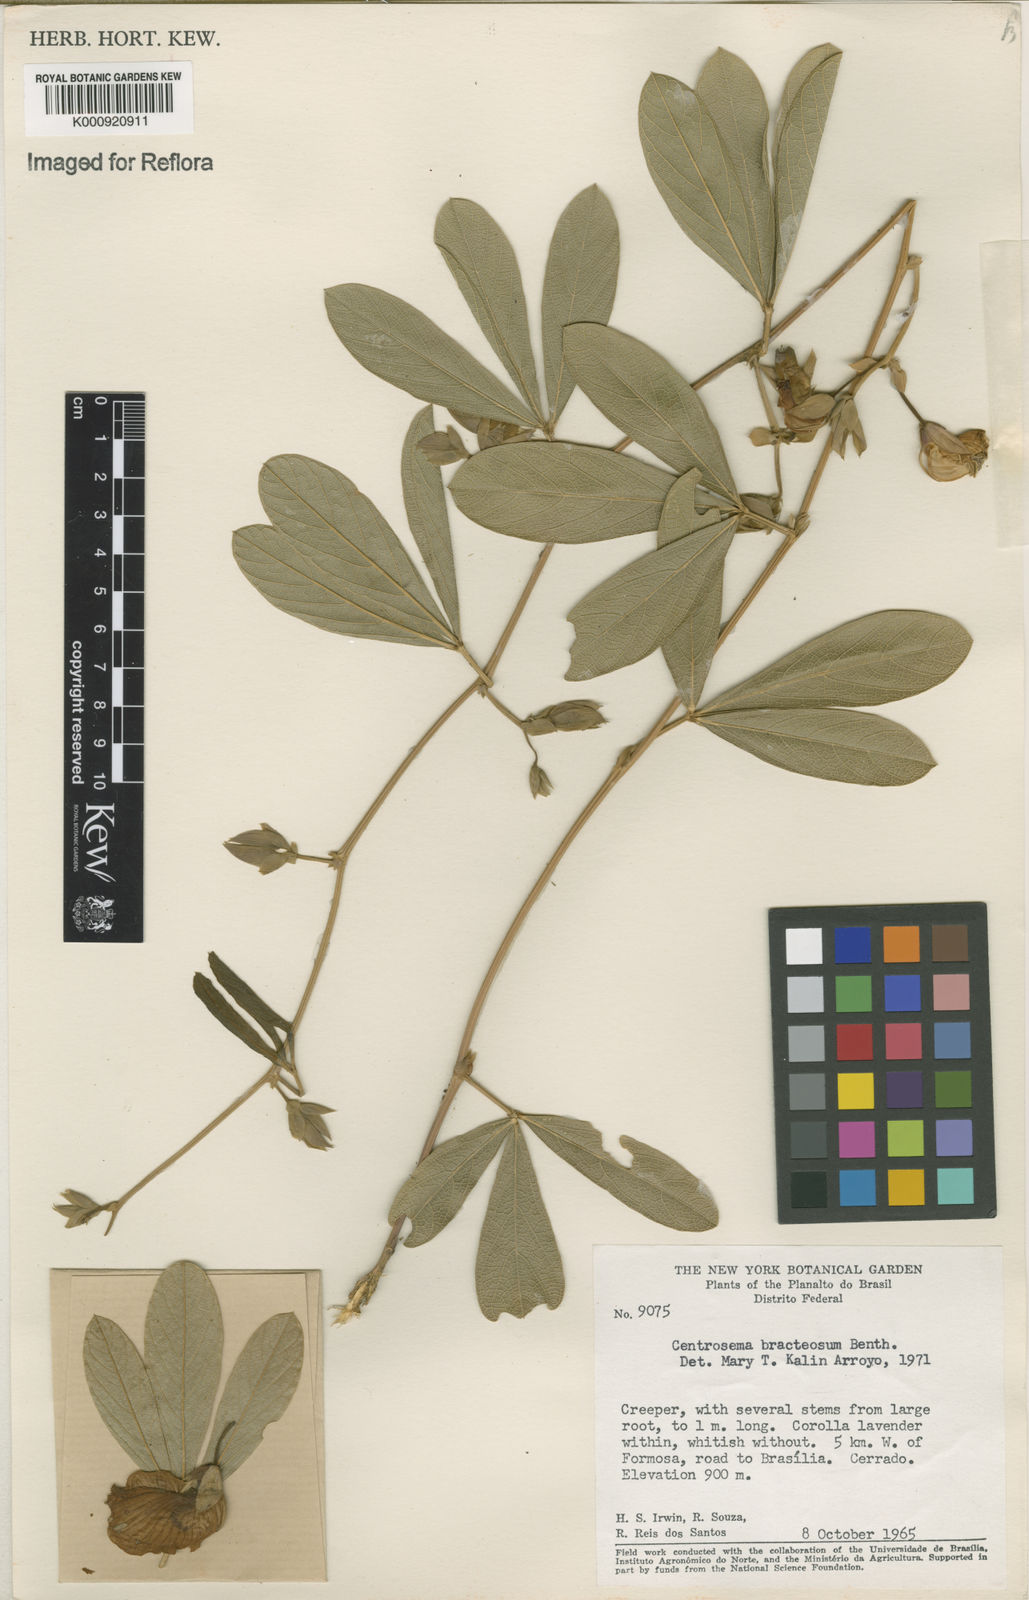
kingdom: Plantae
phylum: Tracheophyta
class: Magnoliopsida
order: Fabales
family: Fabaceae
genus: Centrosema
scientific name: Centrosema bracteosum
